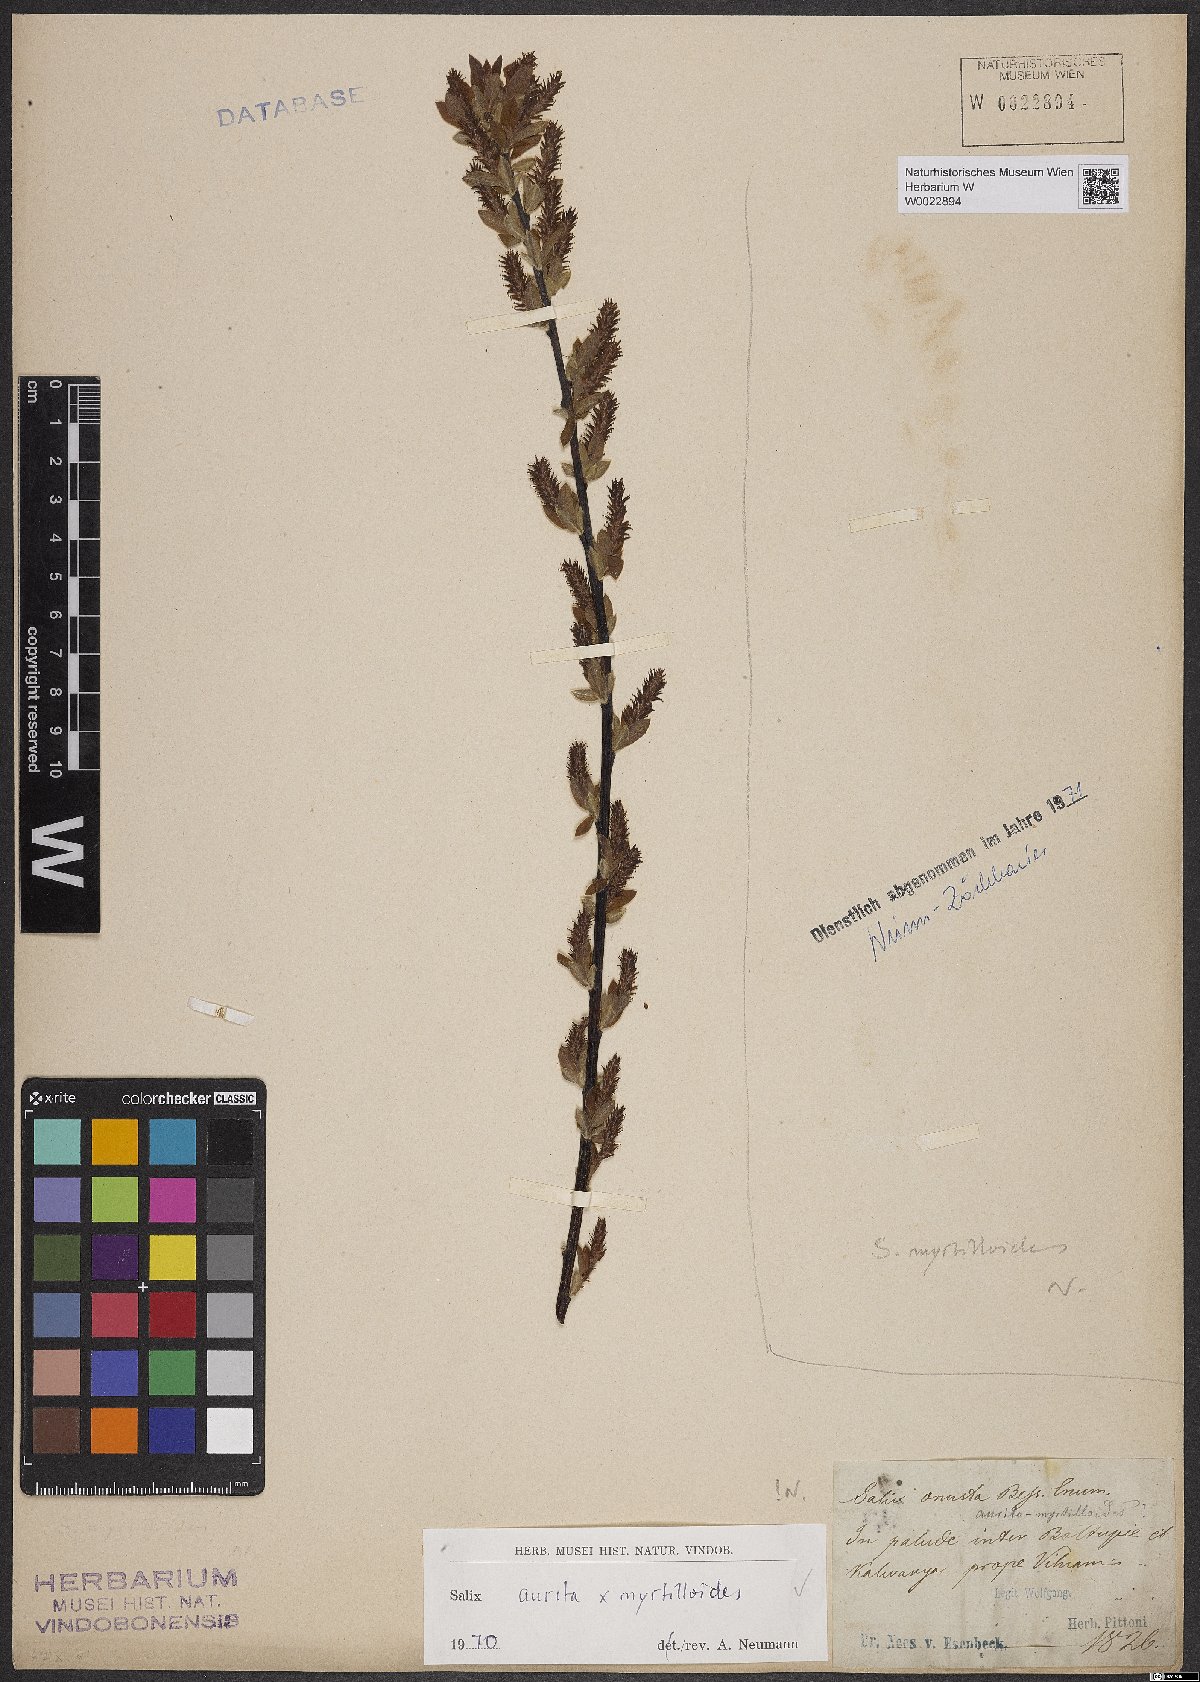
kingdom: Plantae
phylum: Tracheophyta
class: Magnoliopsida
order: Malpighiales
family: Salicaceae
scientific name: Salicaceae
